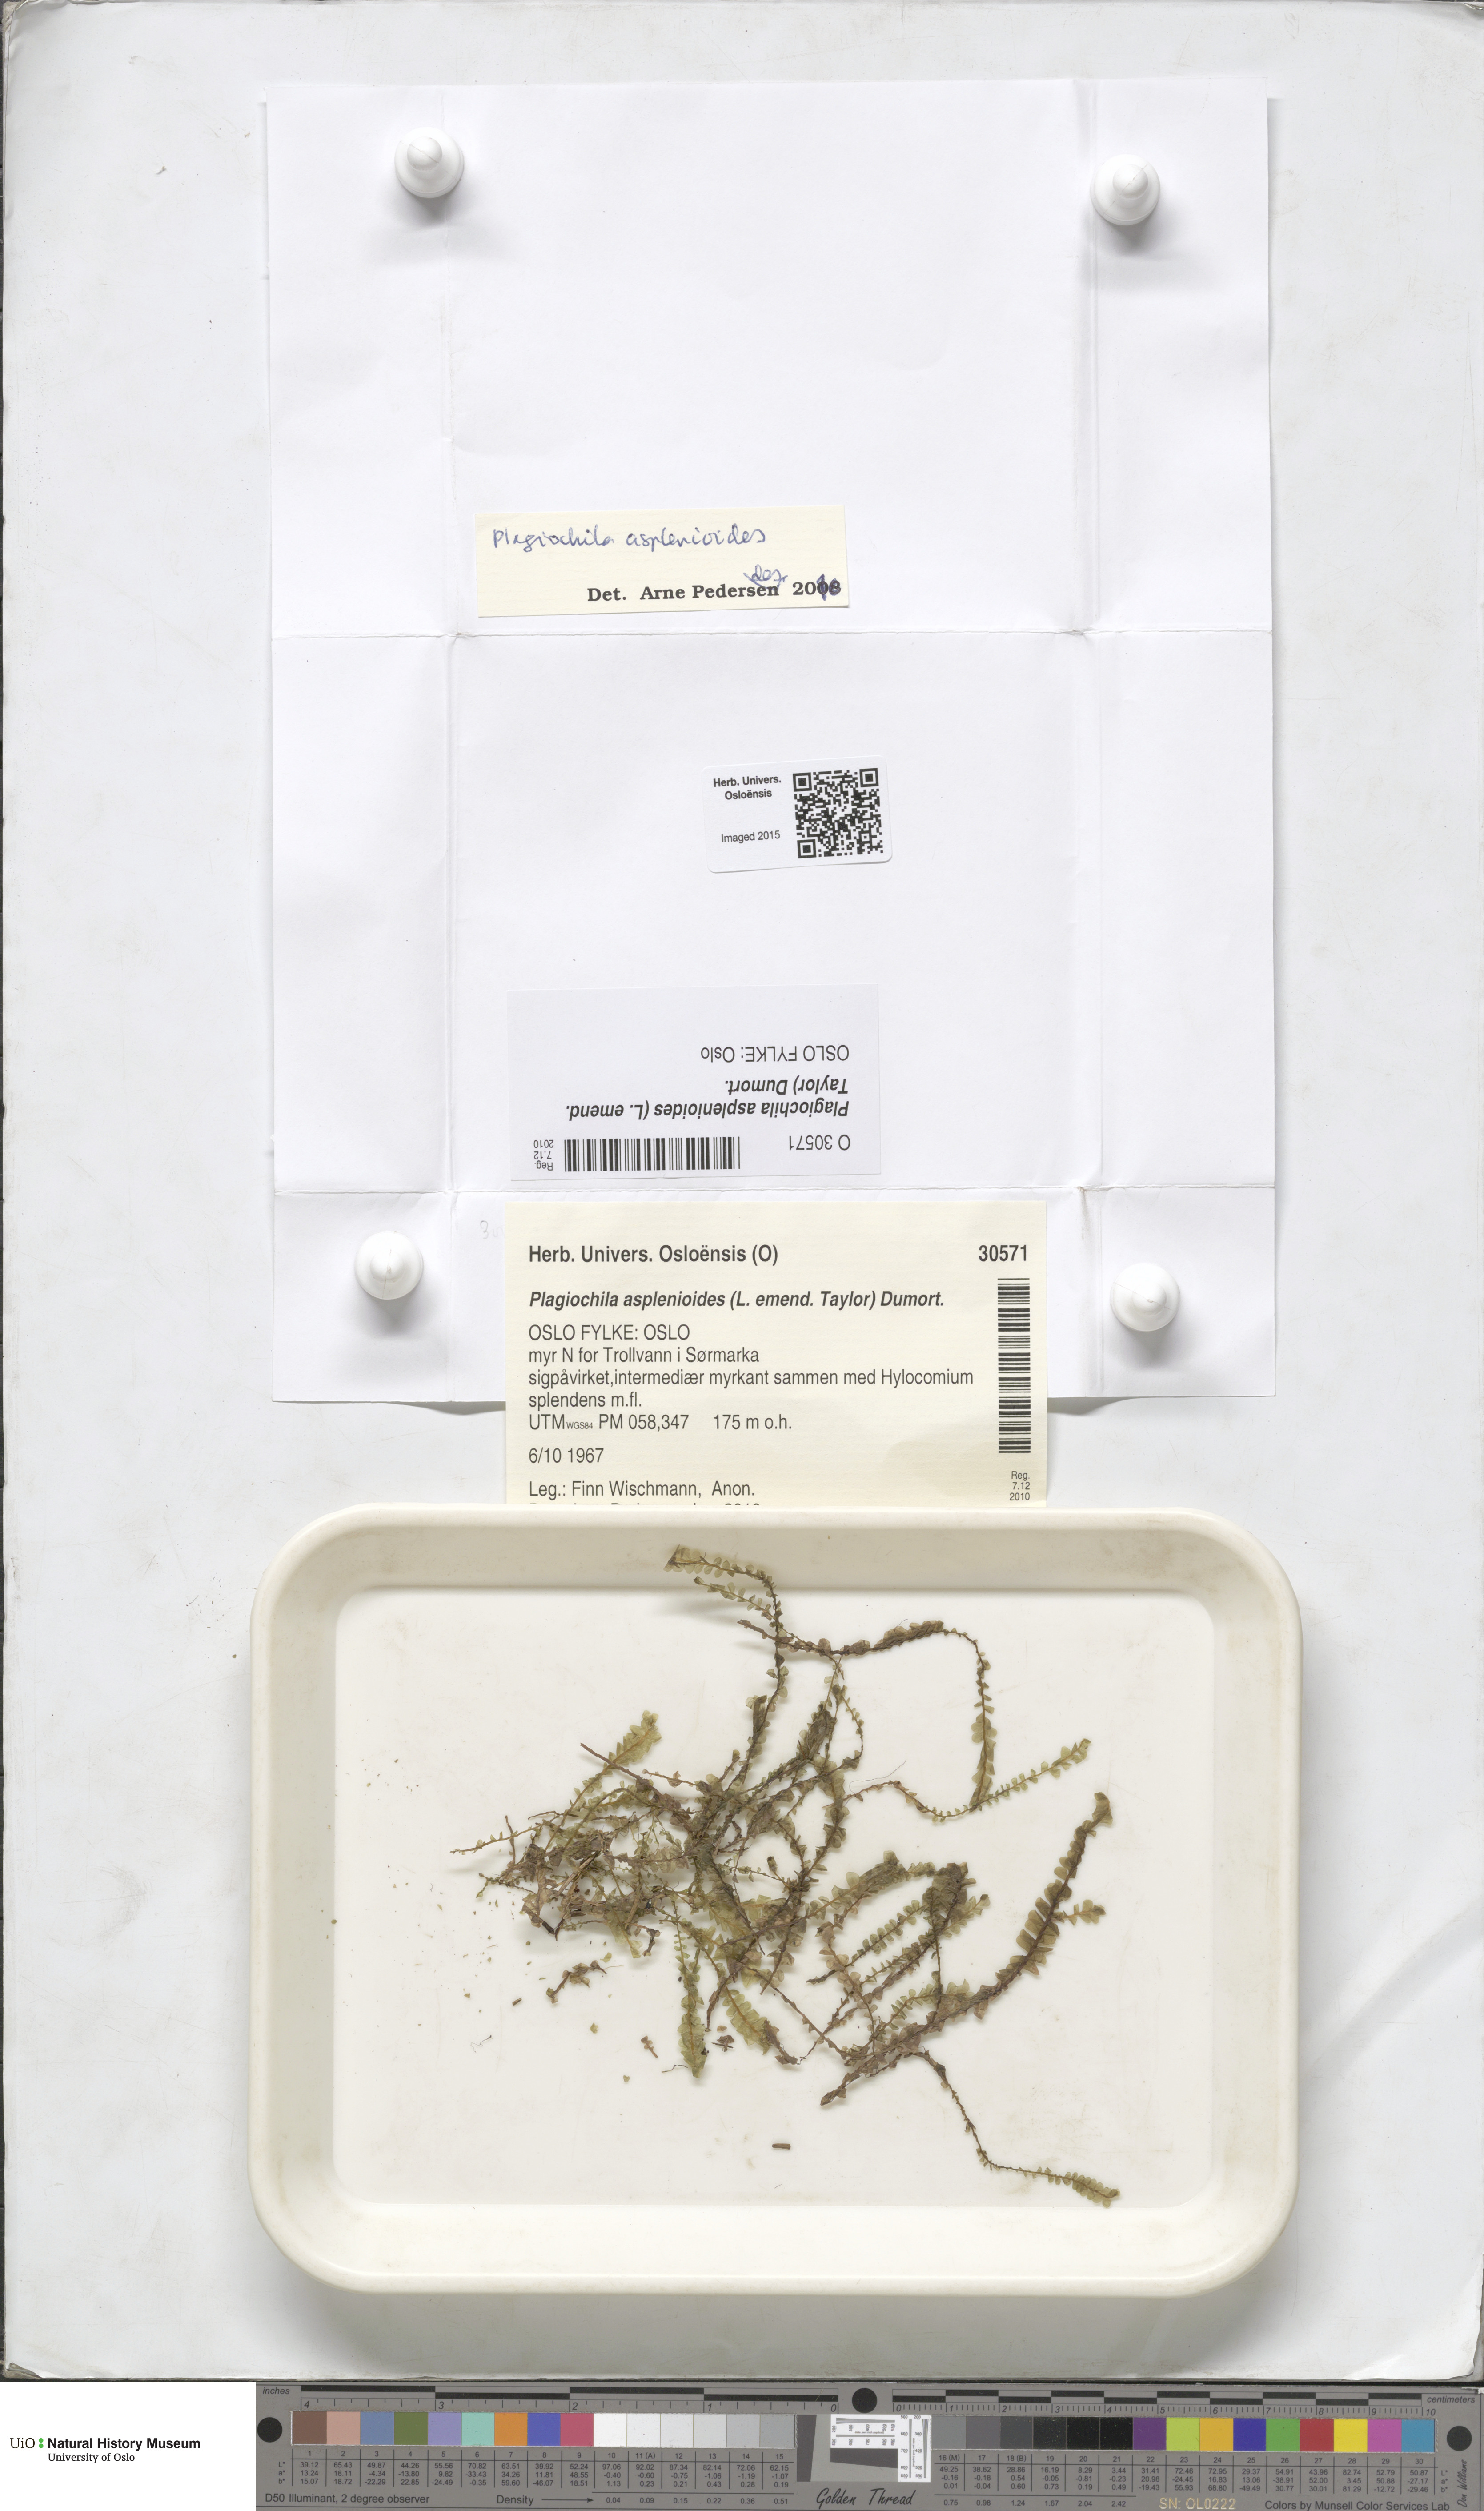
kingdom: Plantae
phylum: Marchantiophyta
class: Jungermanniopsida
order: Jungermanniales
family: Plagiochilaceae
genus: Plagiochila
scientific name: Plagiochila asplenioides
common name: Greater featherwort
